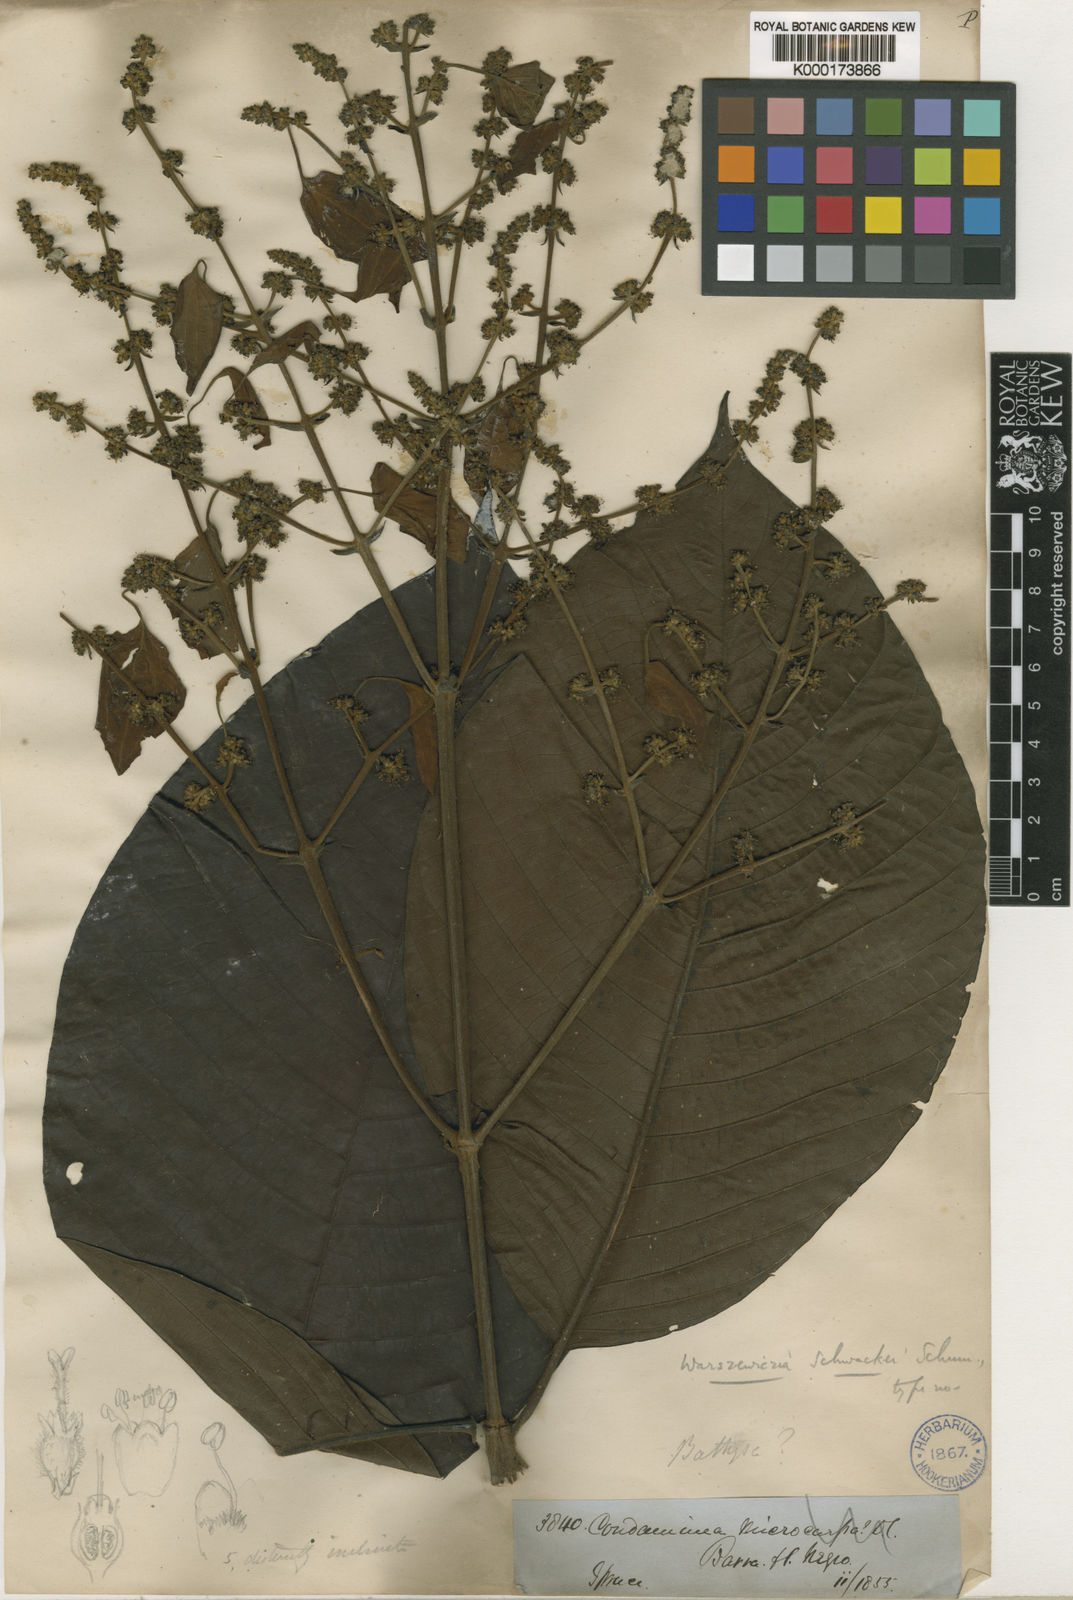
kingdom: Plantae
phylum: Tracheophyta
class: Magnoliopsida
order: Gentianales
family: Rubiaceae
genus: Warszewiczia
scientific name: Warszewiczia schwackei
